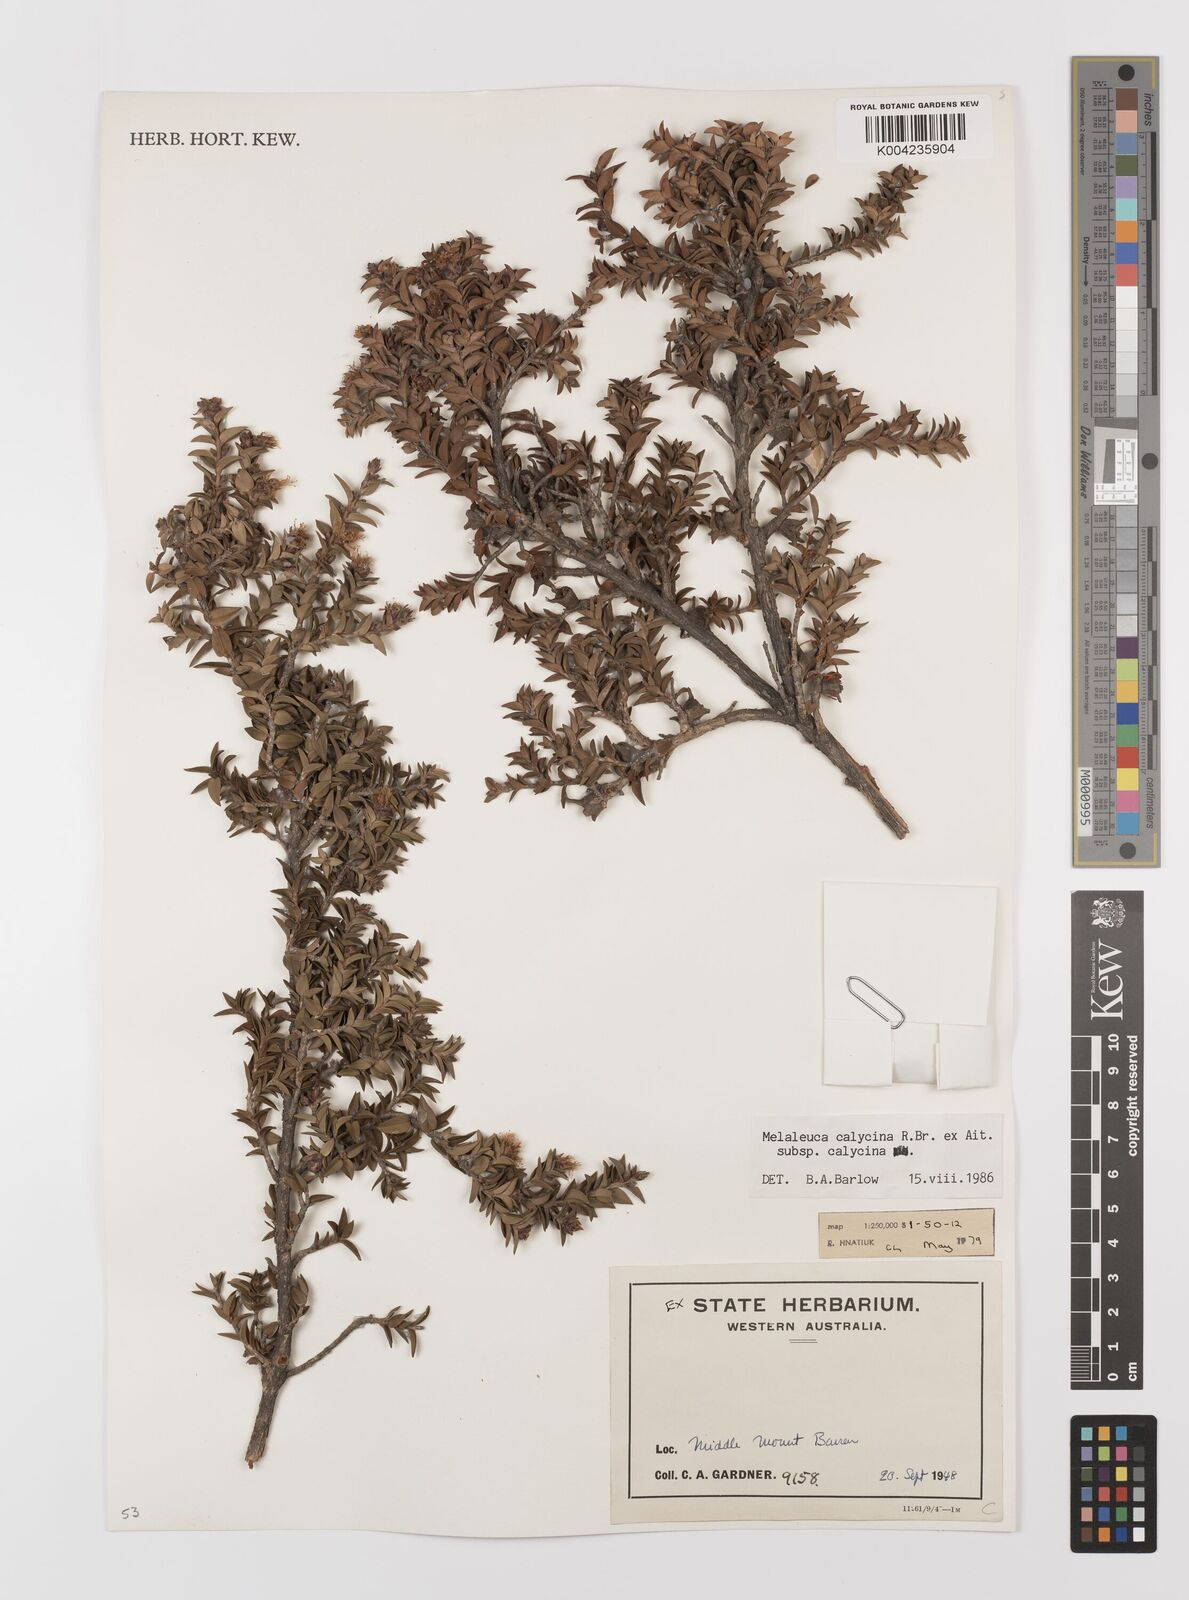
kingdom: Plantae
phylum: Tracheophyta
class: Magnoliopsida
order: Myrtales
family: Myrtaceae
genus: Melaleuca
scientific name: Melaleuca calycina
